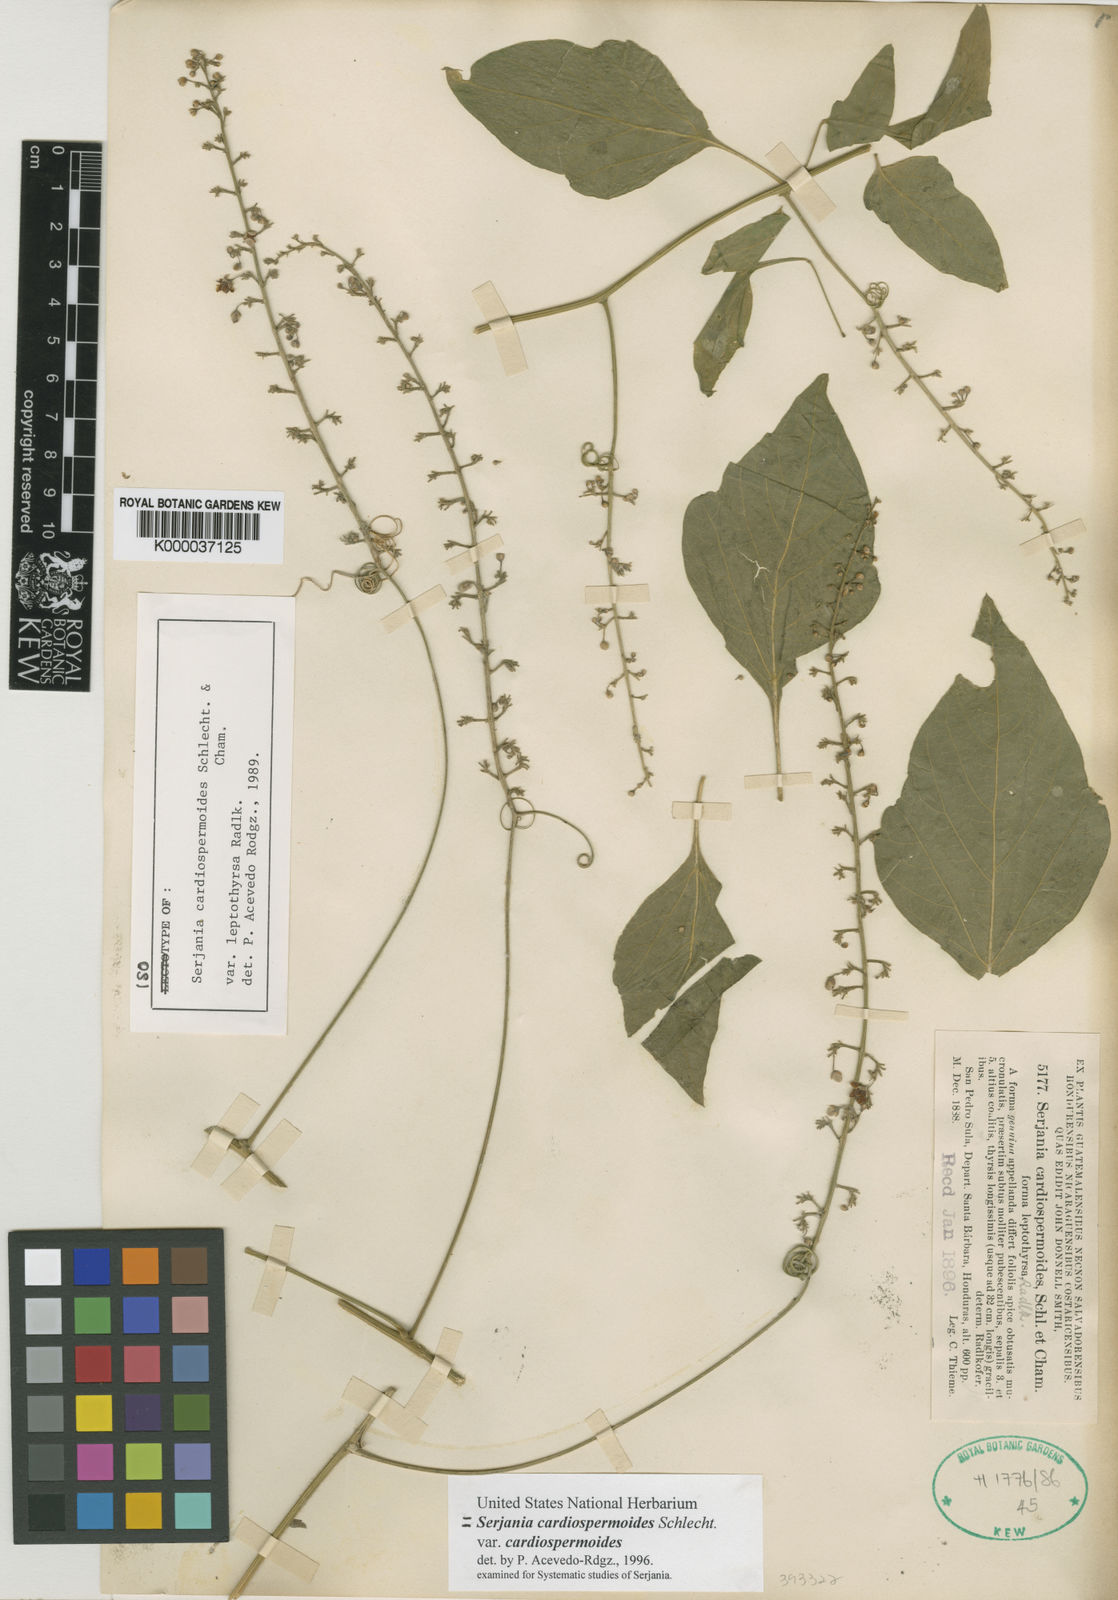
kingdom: Plantae
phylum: Tracheophyta
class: Magnoliopsida
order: Sapindales
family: Sapindaceae
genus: Serjania
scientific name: Serjania cardiospermoides
